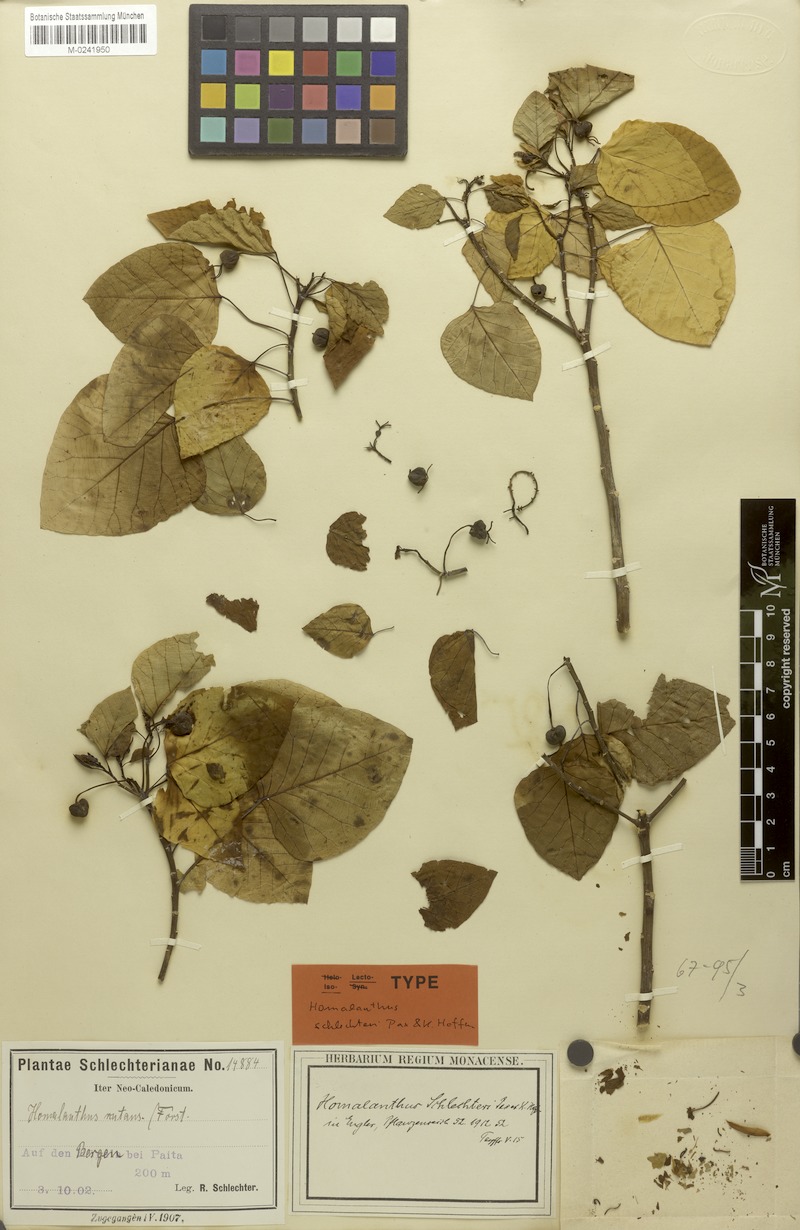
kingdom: Plantae
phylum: Tracheophyta
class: Magnoliopsida
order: Malpighiales
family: Euphorbiaceae
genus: Homalanthus
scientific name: Homalanthus schlechteri
